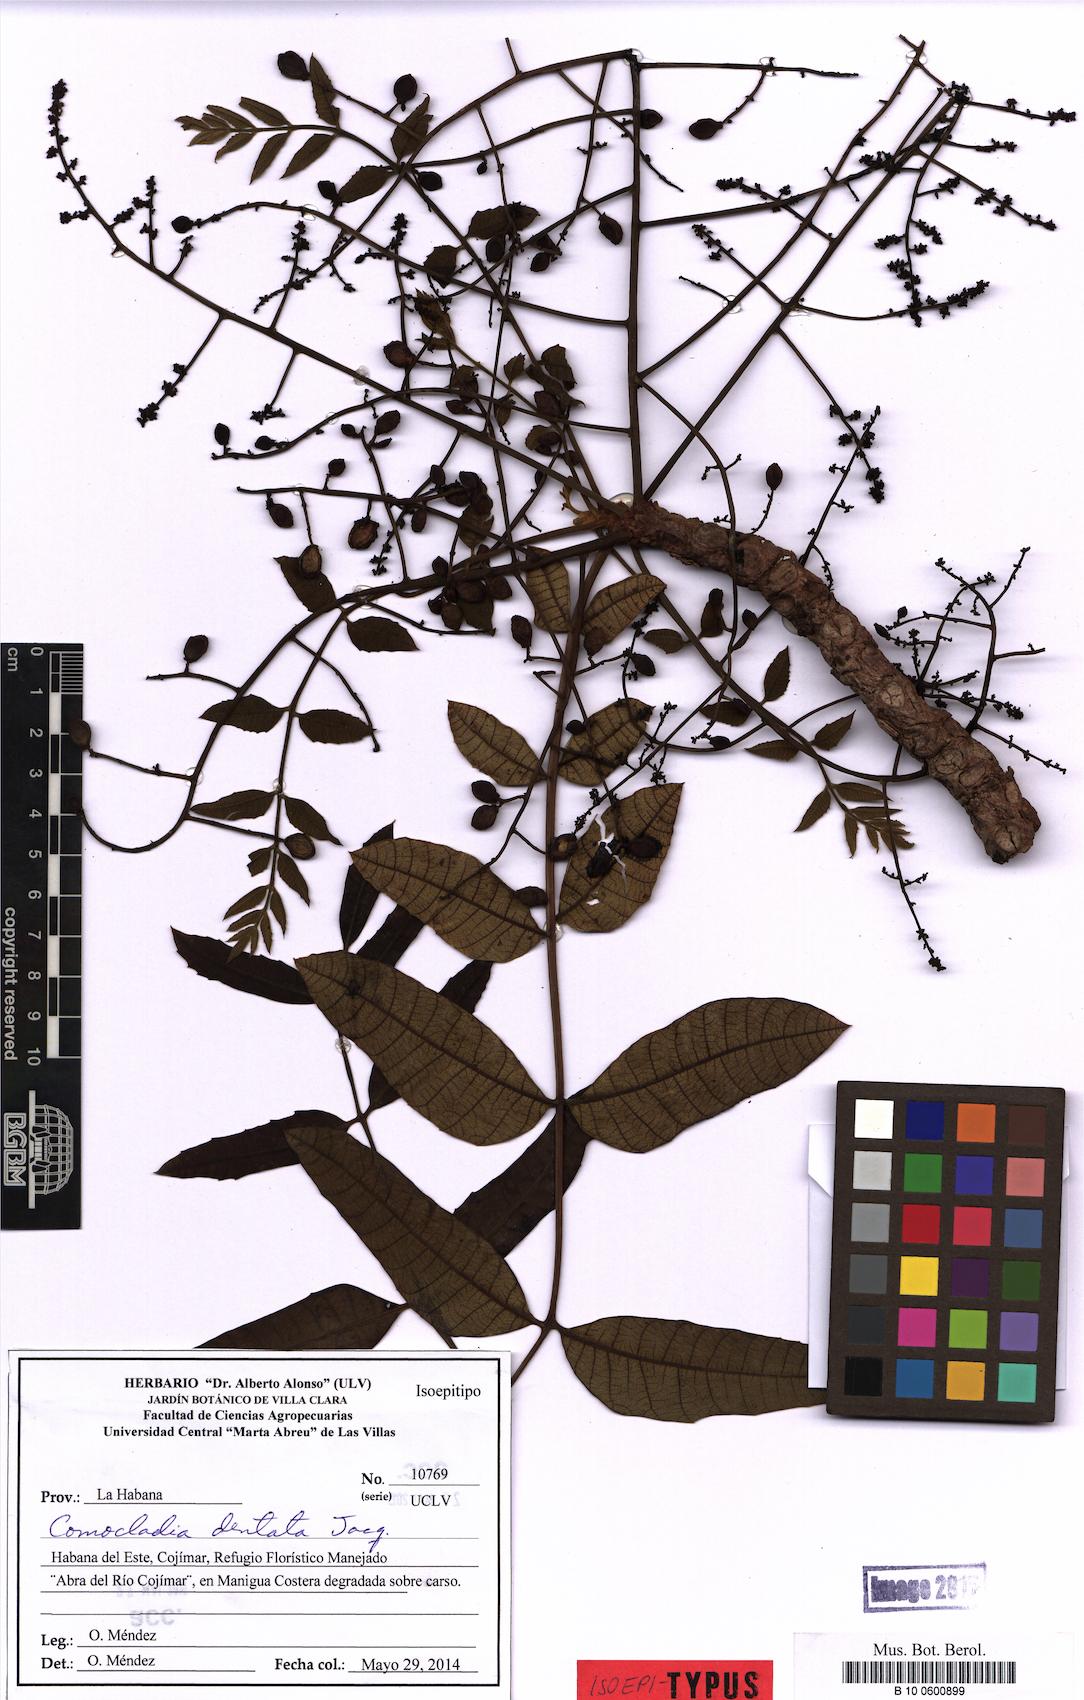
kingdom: Plantae
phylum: Tracheophyta
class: Magnoliopsida
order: Sapindales
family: Anacardiaceae
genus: Comocladia
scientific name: Comocladia dentata
